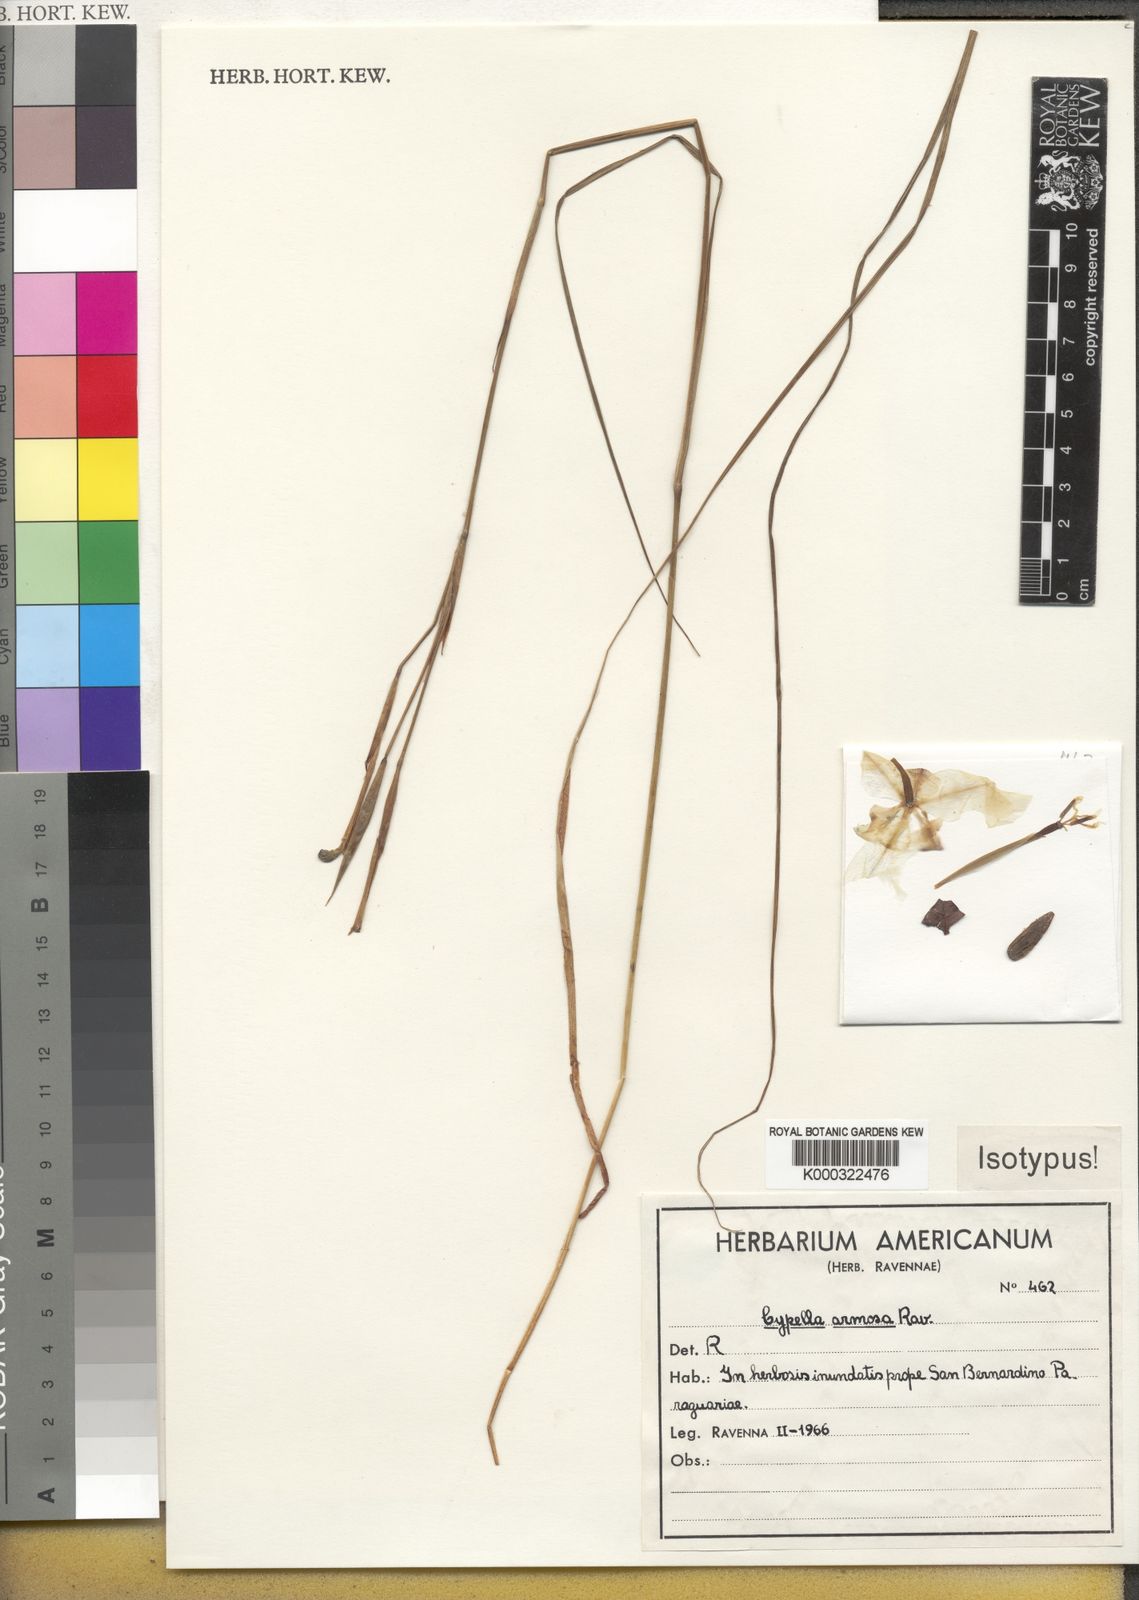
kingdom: Plantae
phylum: Tracheophyta
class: Liliopsida
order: Asparagales
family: Iridaceae
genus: Cypella
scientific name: Cypella armosa
